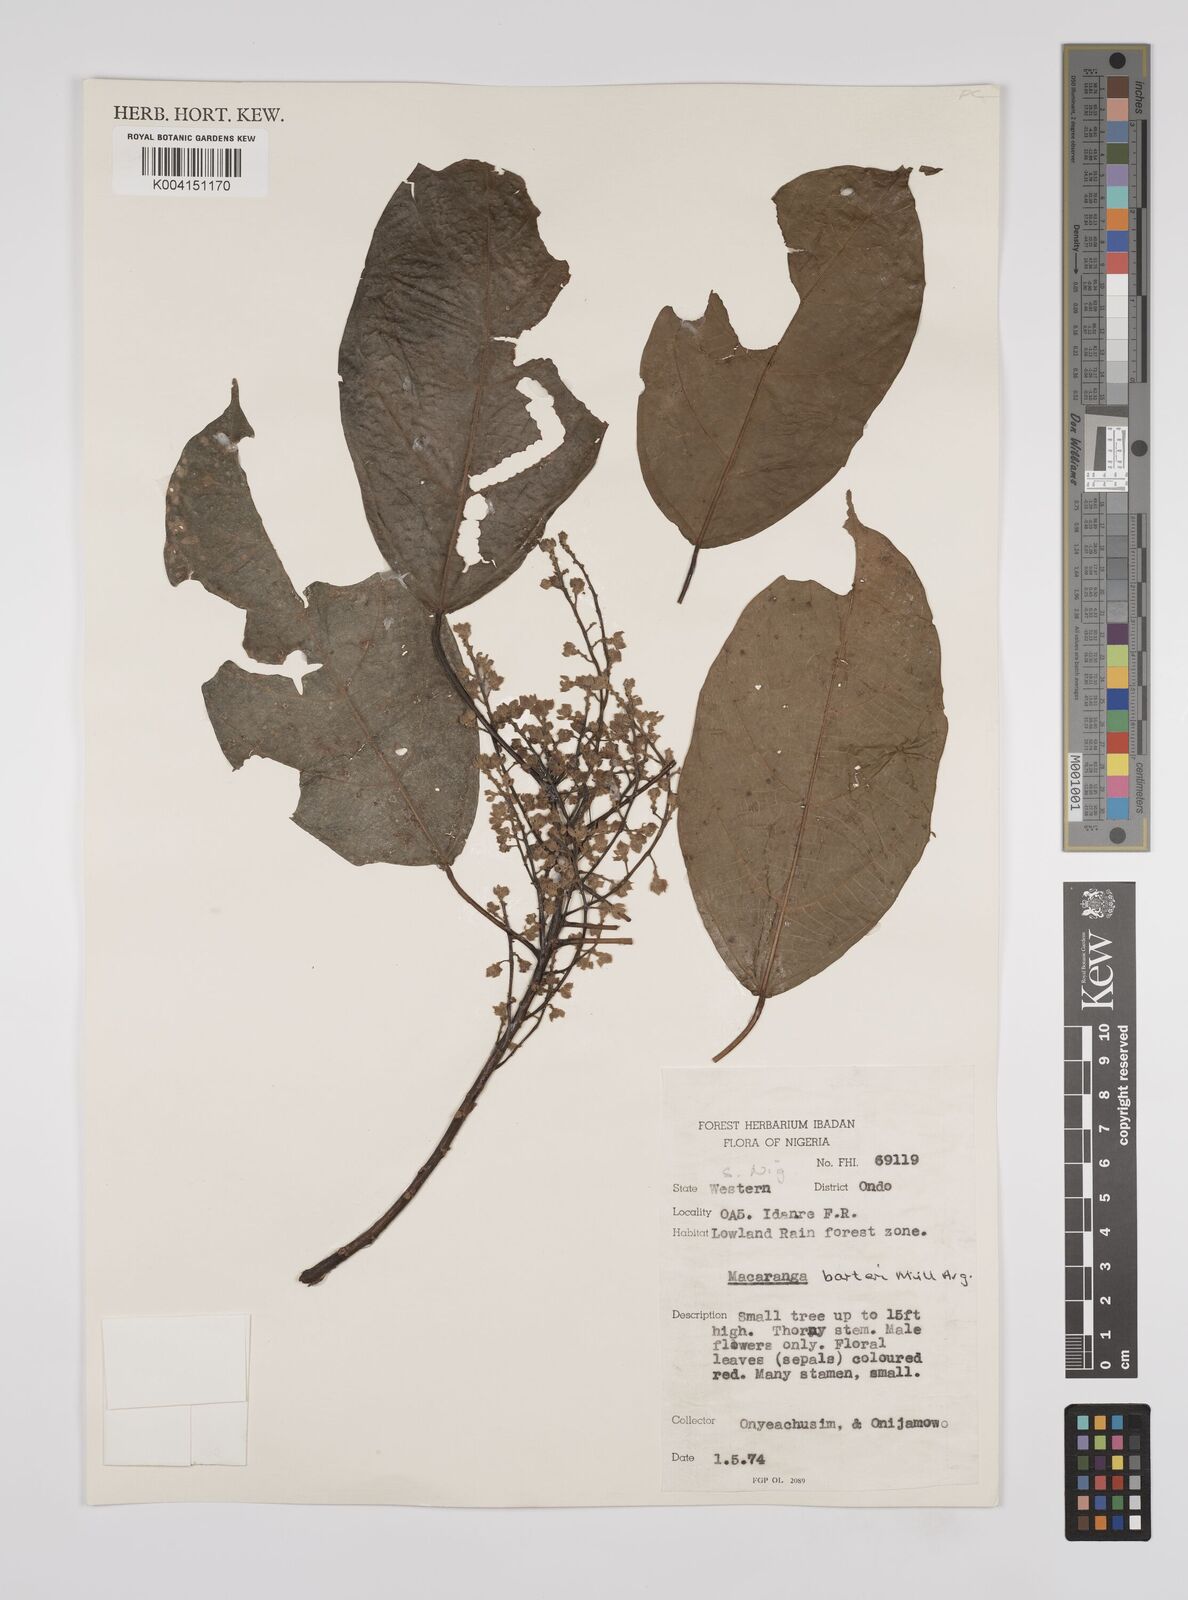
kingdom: Plantae
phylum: Tracheophyta
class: Magnoliopsida
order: Malpighiales
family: Euphorbiaceae
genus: Macaranga
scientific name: Macaranga barteri
